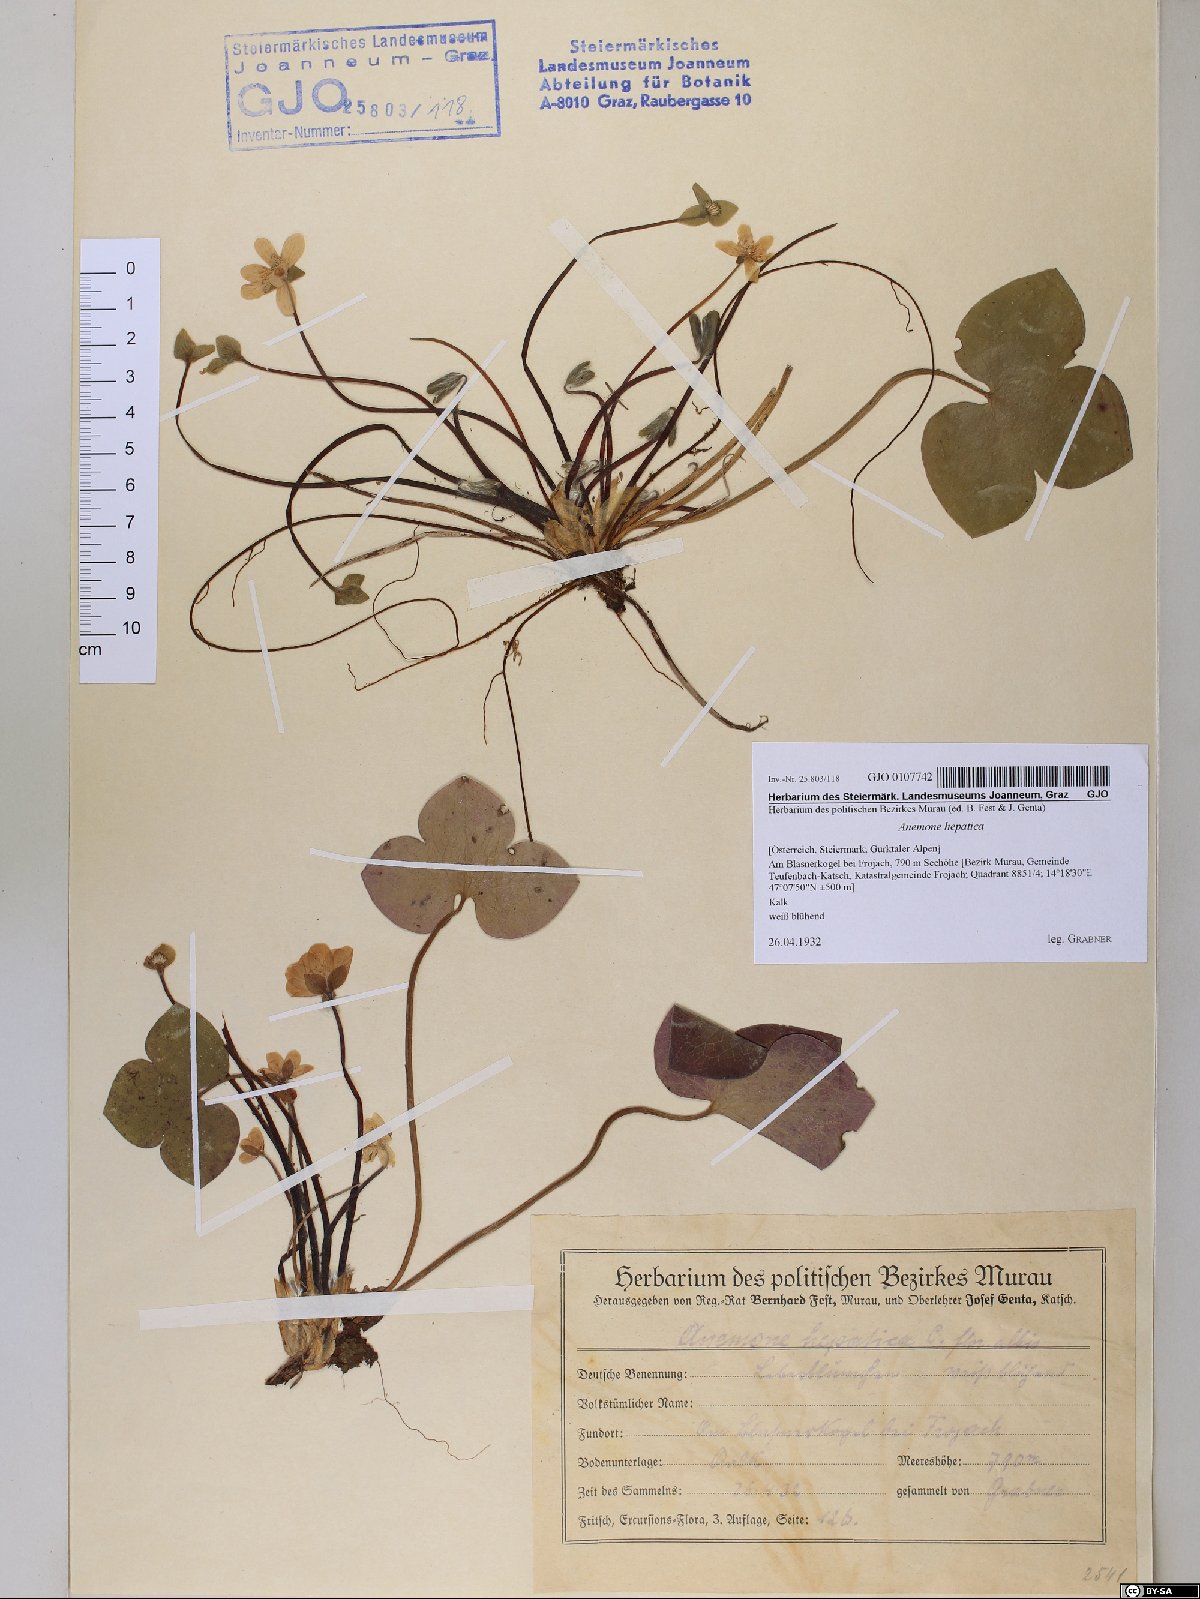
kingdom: Plantae
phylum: Tracheophyta
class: Magnoliopsida
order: Ranunculales
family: Ranunculaceae
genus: Hepatica
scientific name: Hepatica nobilis
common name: Liverleaf
